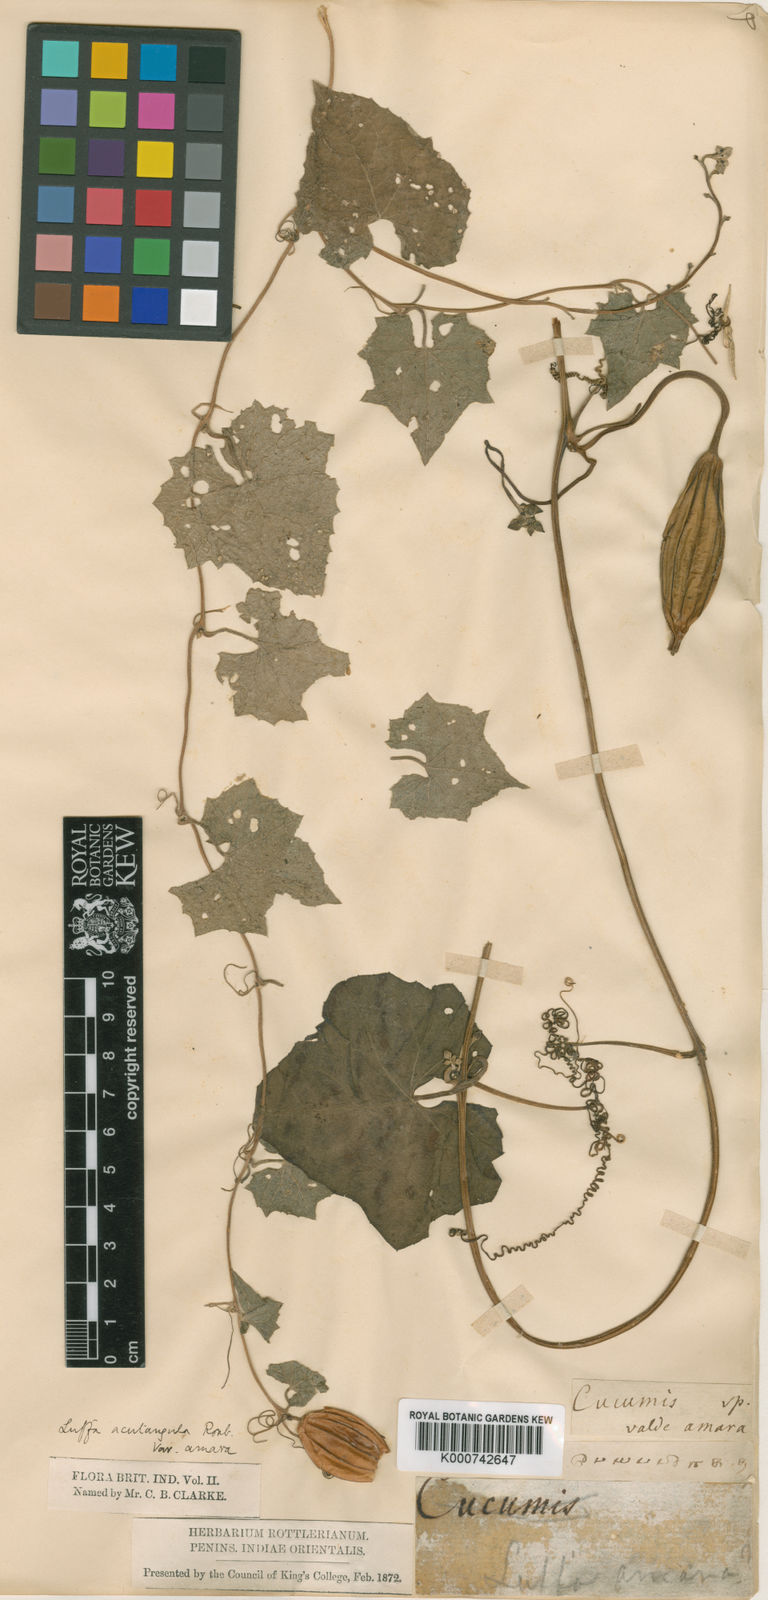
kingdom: Plantae
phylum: Tracheophyta
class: Magnoliopsida
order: Cucurbitales
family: Cucurbitaceae
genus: Luffa
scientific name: Luffa acutangula
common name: Sinkwa towelsponge
